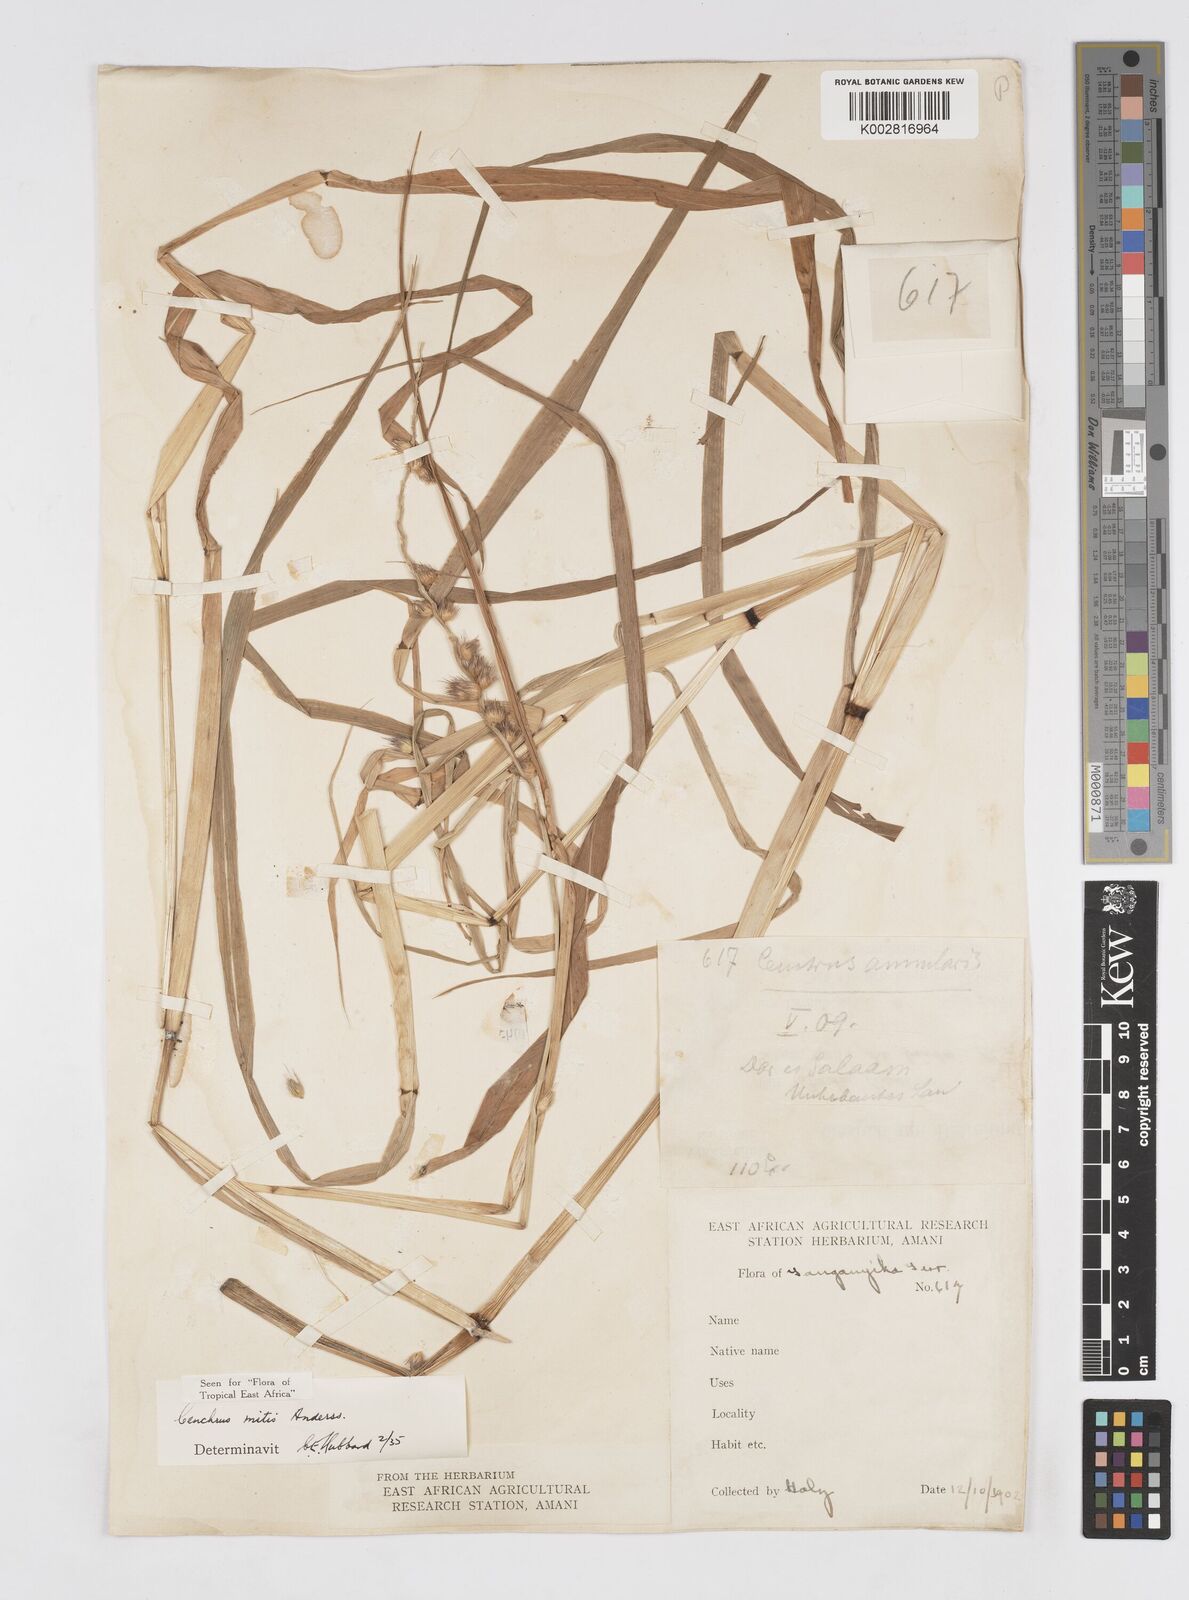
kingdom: Plantae
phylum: Tracheophyta
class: Liliopsida
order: Poales
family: Poaceae
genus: Cenchrus
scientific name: Cenchrus mitis
